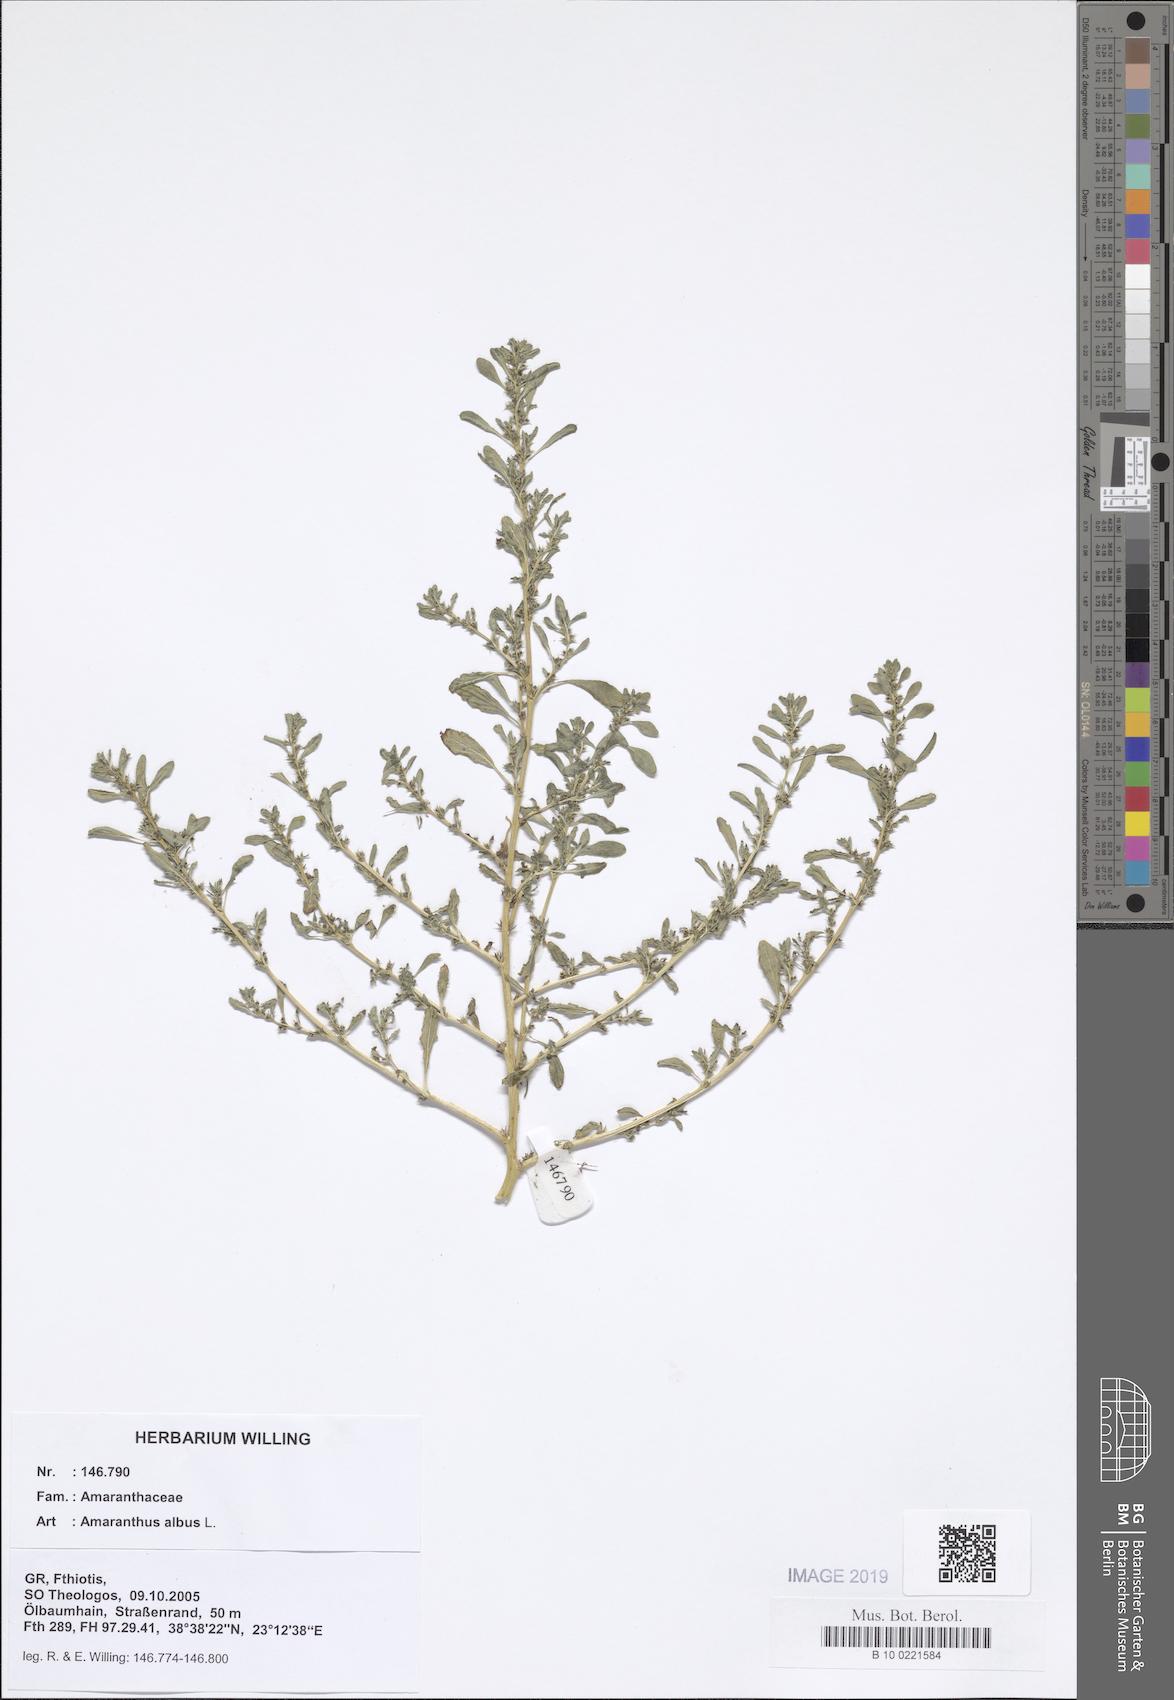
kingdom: Plantae
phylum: Tracheophyta
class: Magnoliopsida
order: Caryophyllales
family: Amaranthaceae
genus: Amaranthus
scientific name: Amaranthus albus
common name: White pigweed
